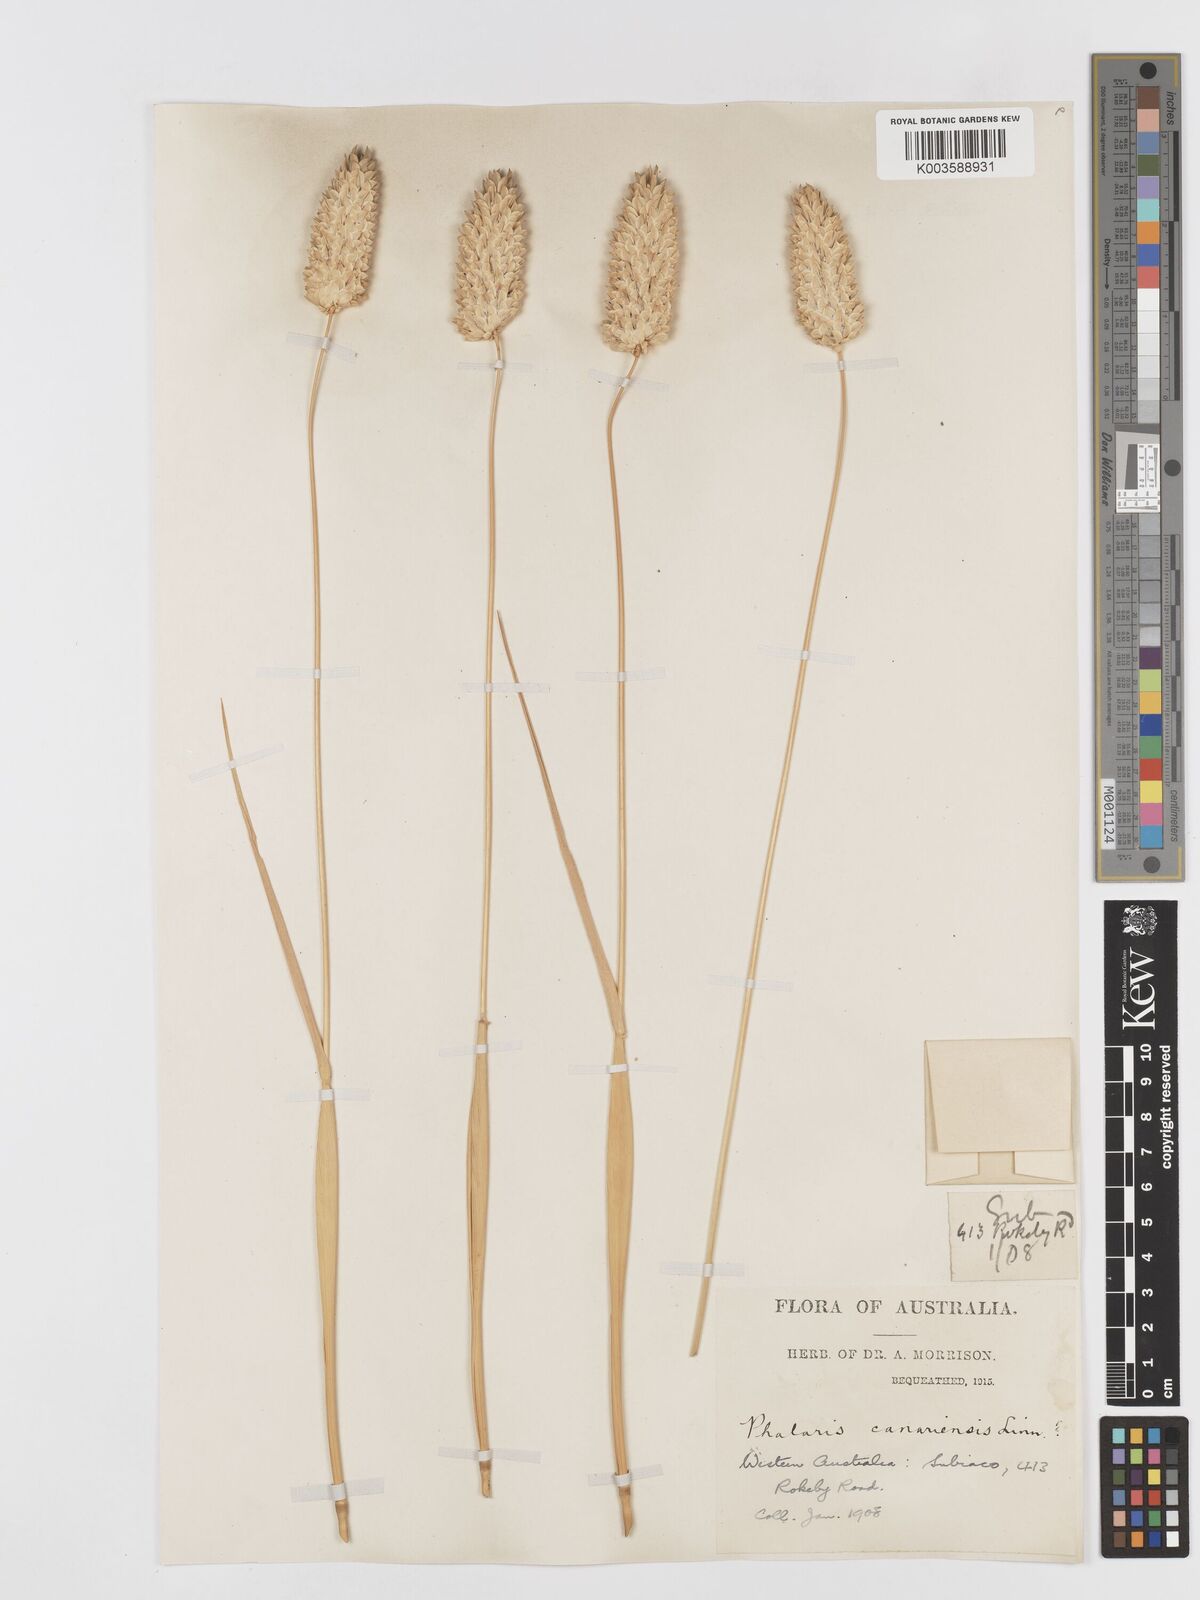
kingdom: Plantae
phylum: Tracheophyta
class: Liliopsida
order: Poales
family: Poaceae
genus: Phalaris
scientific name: Phalaris canariensis
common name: Annual canarygrass
